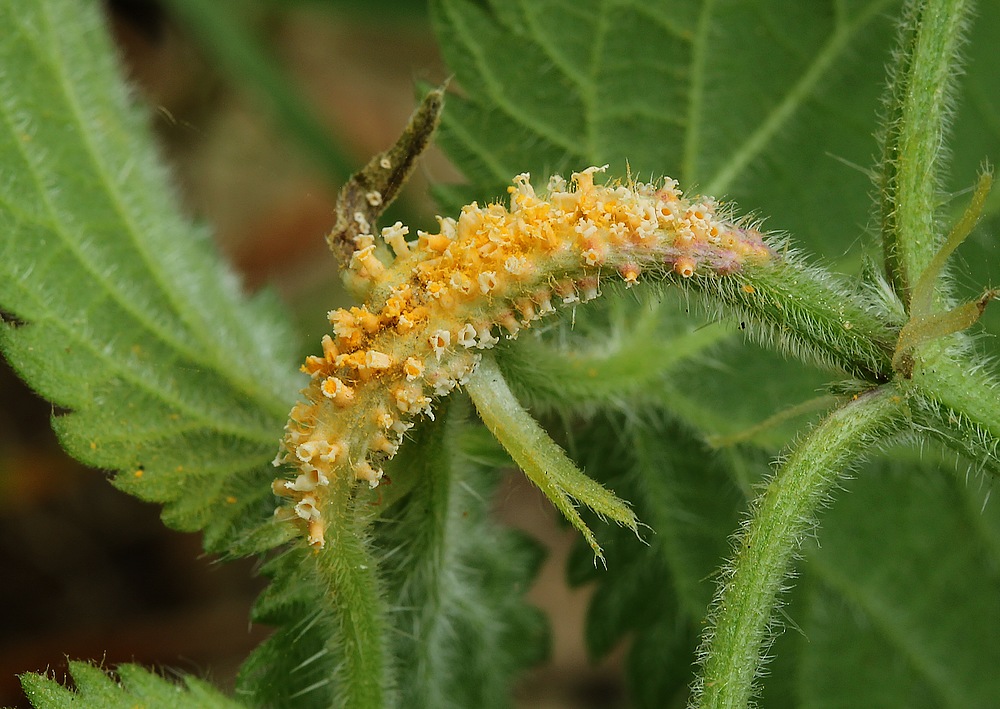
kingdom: Fungi
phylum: Basidiomycota
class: Pucciniomycetes
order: Pucciniales
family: Pucciniaceae
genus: Puccinia
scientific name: Puccinia urticata
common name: nældegalle-tvecellerust
